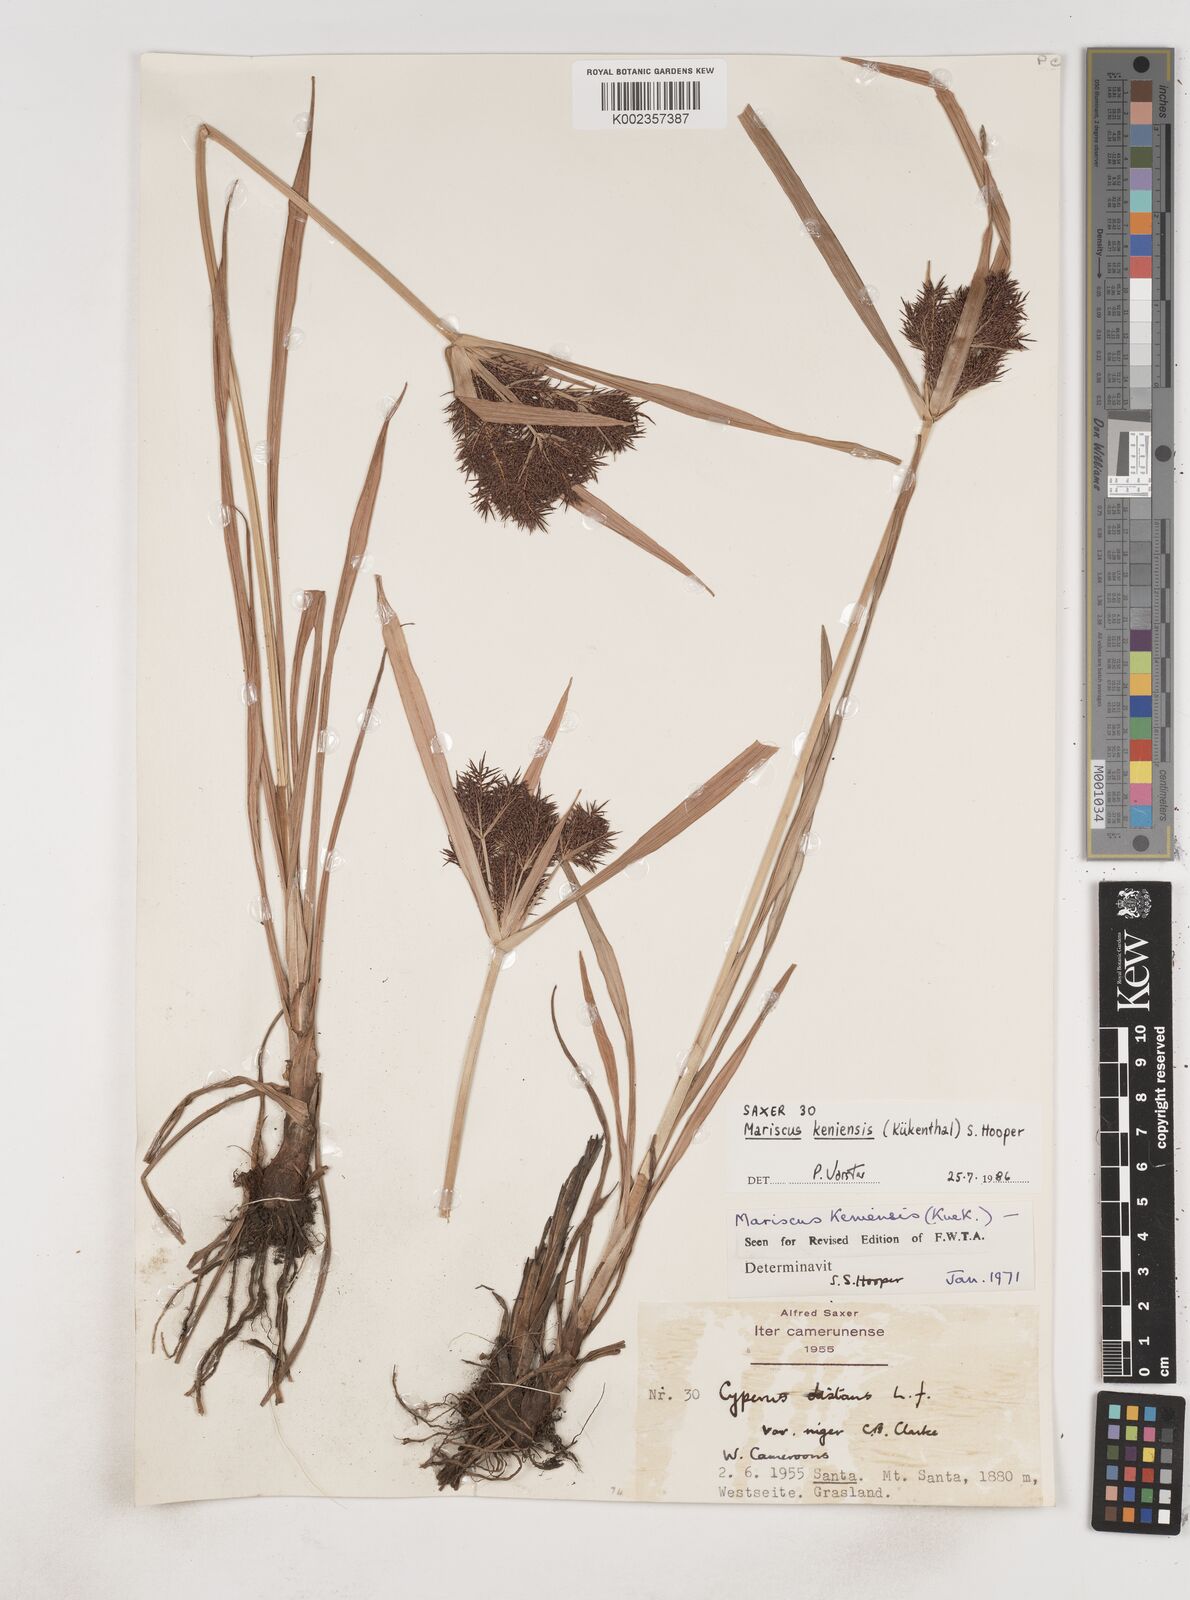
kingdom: Plantae
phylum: Tracheophyta
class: Liliopsida
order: Poales
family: Cyperaceae
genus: Cyperus
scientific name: Cyperus distans
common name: Slender cyperus
